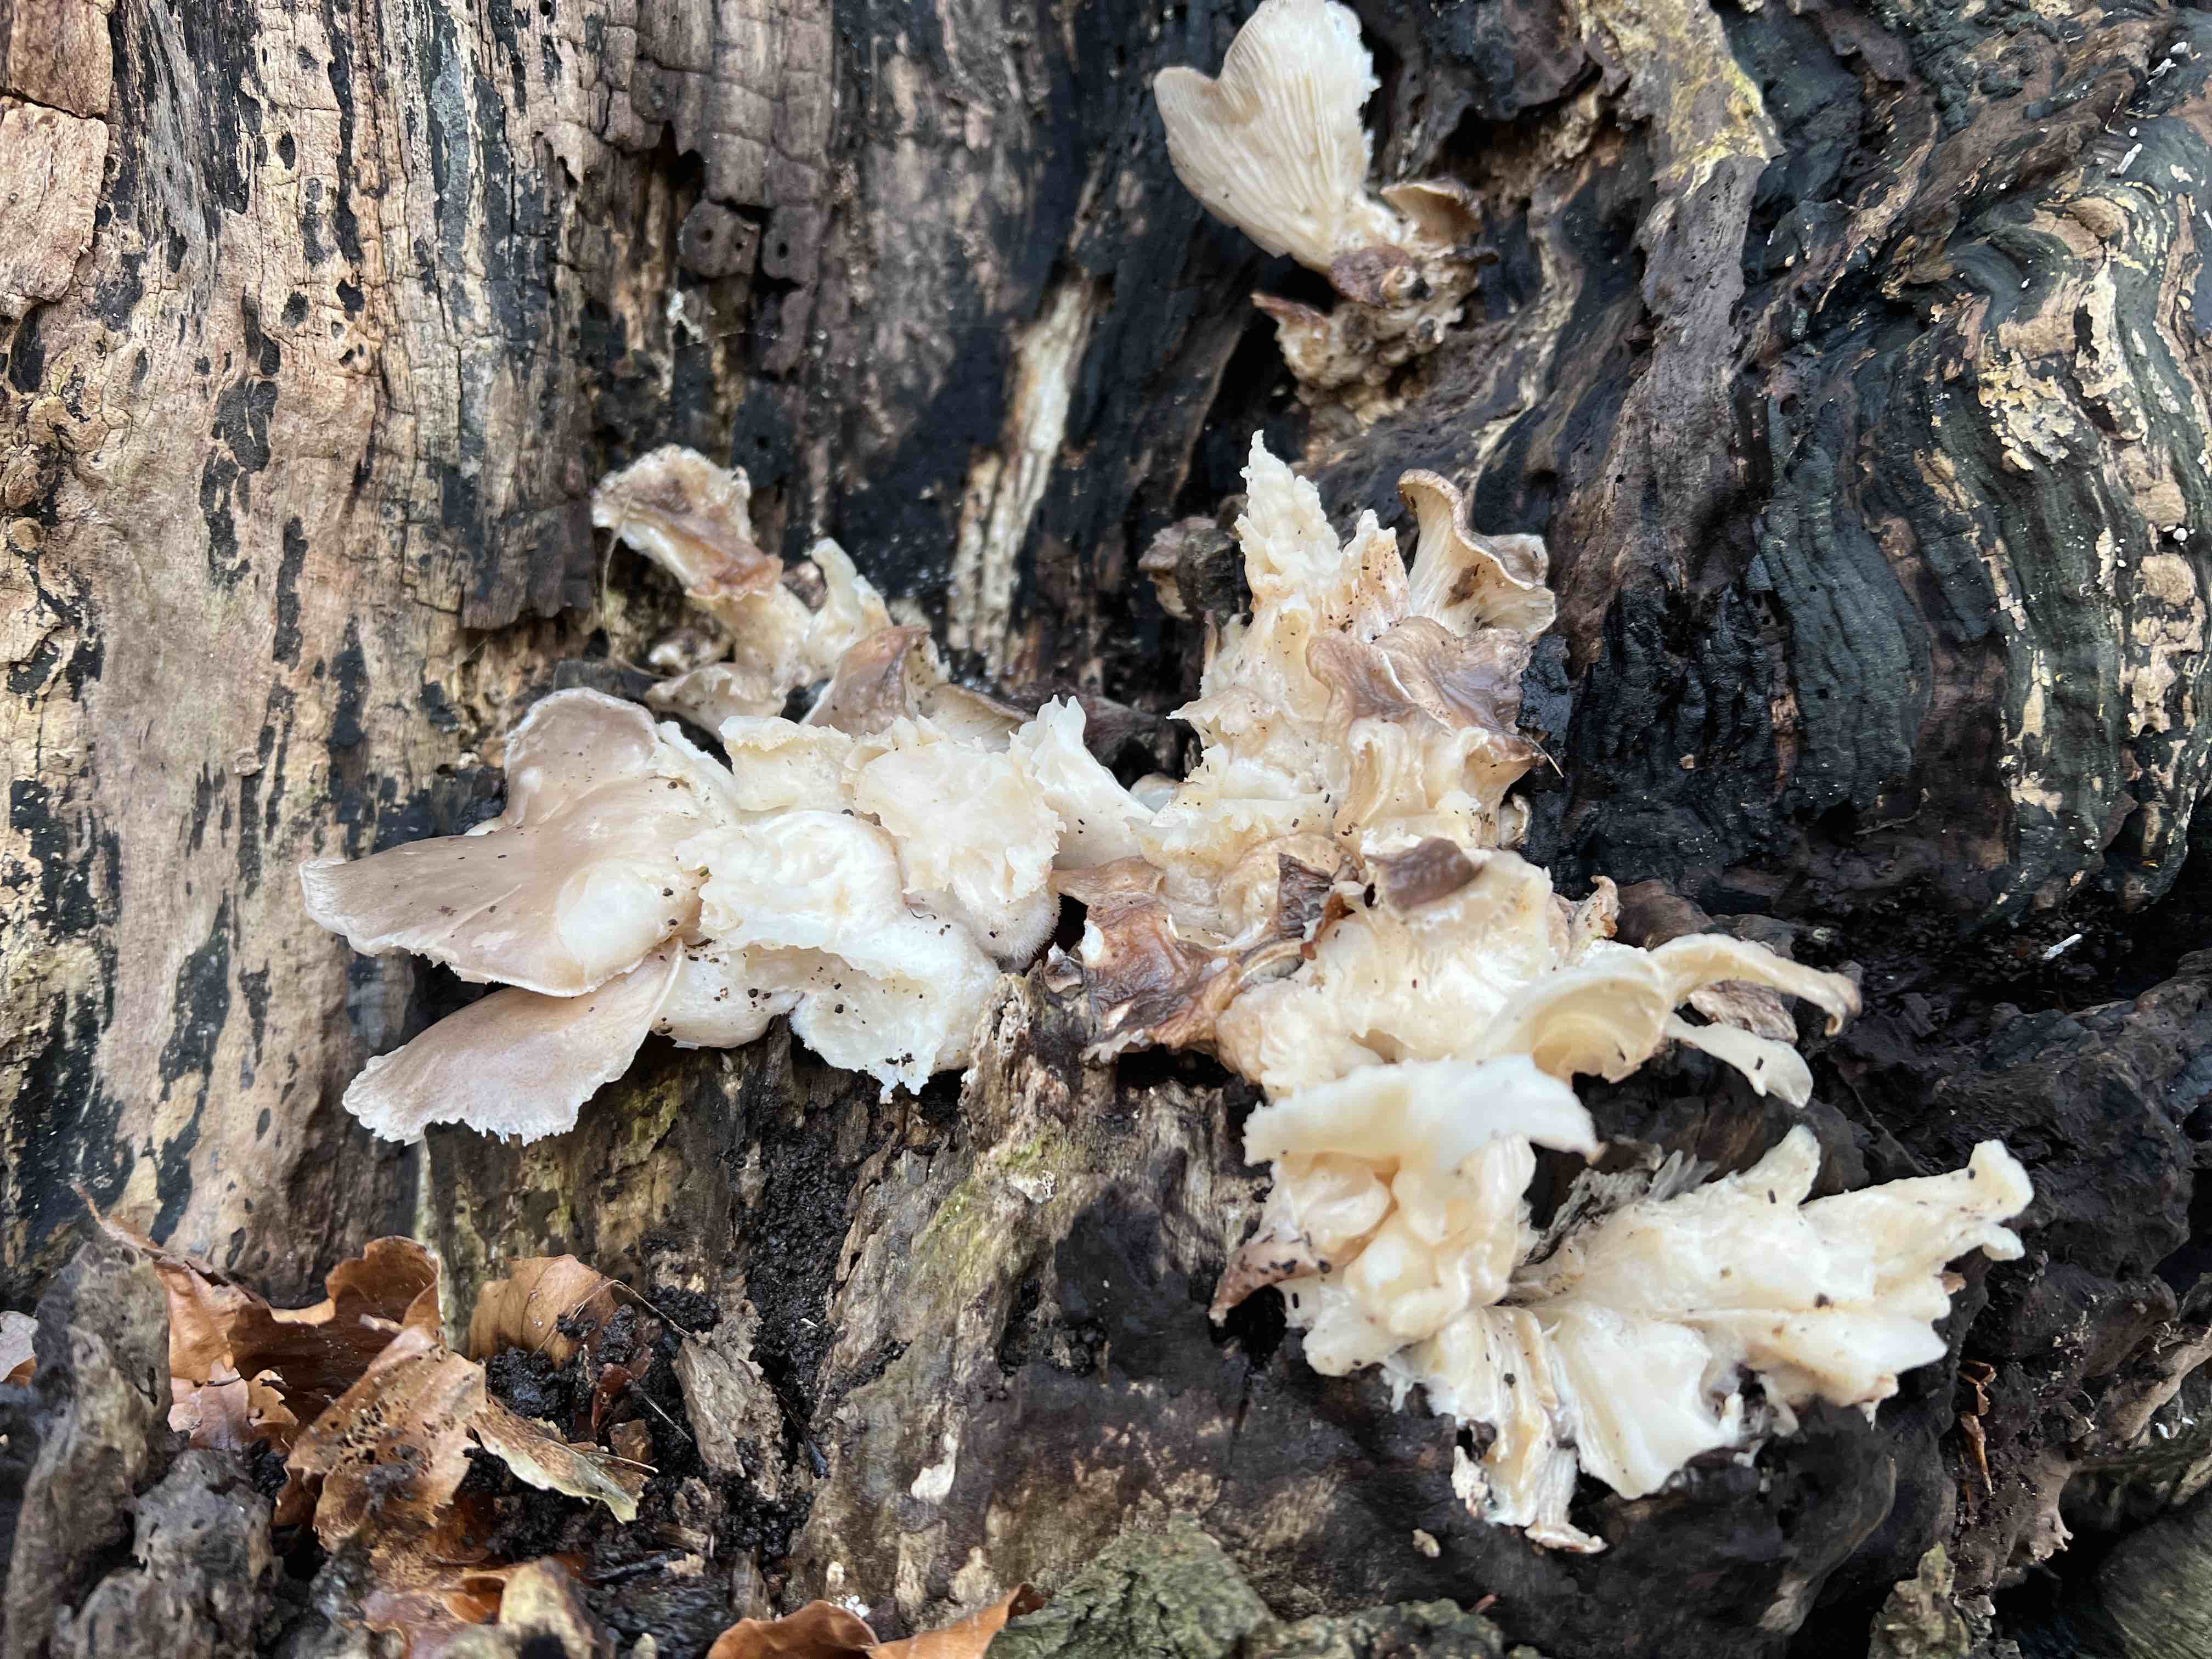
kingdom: Fungi
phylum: Basidiomycota
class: Agaricomycetes
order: Agaricales
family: Pleurotaceae
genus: Pleurotus
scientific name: Pleurotus ostreatus
